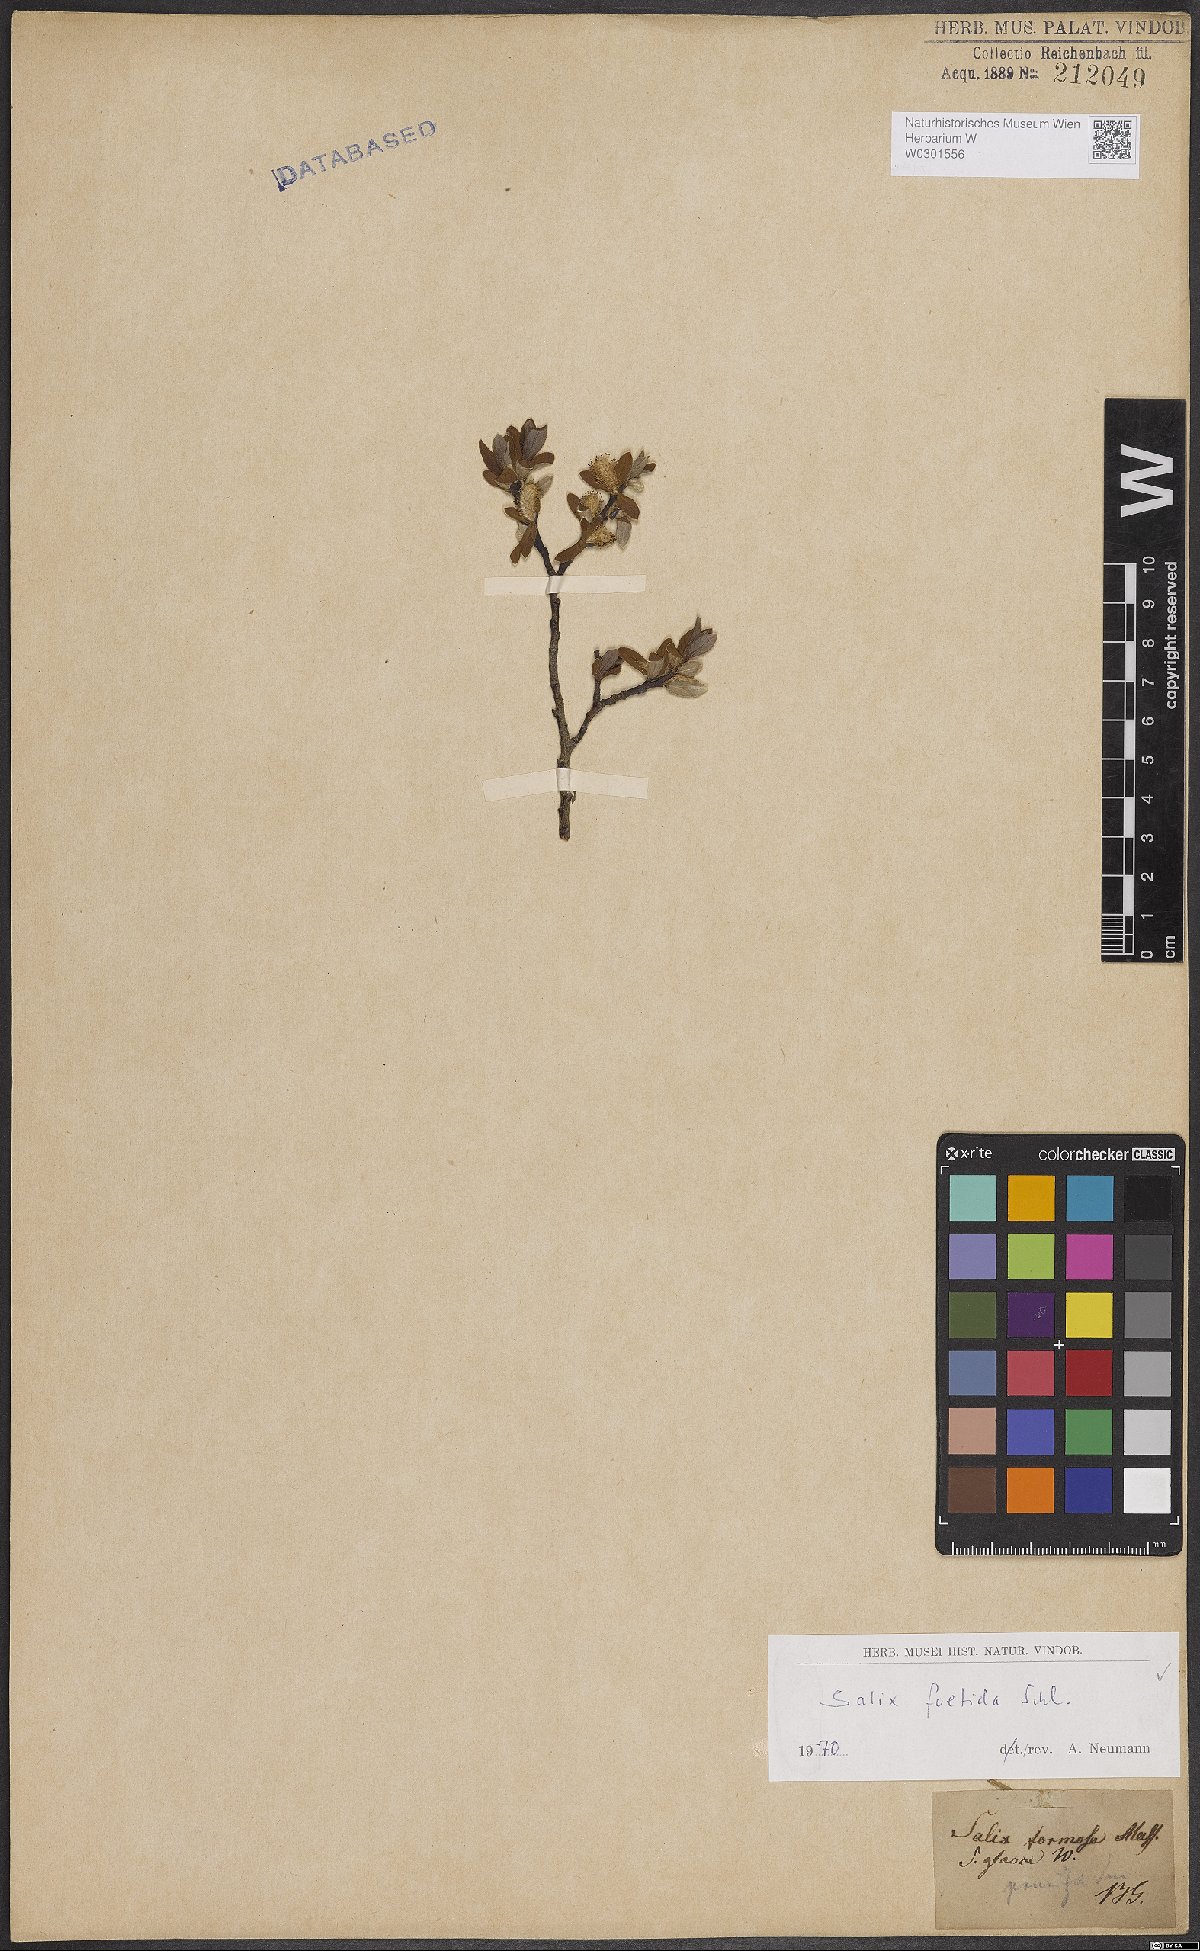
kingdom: Plantae
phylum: Tracheophyta
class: Magnoliopsida
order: Malpighiales
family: Salicaceae
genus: Salix
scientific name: Salix foetida
